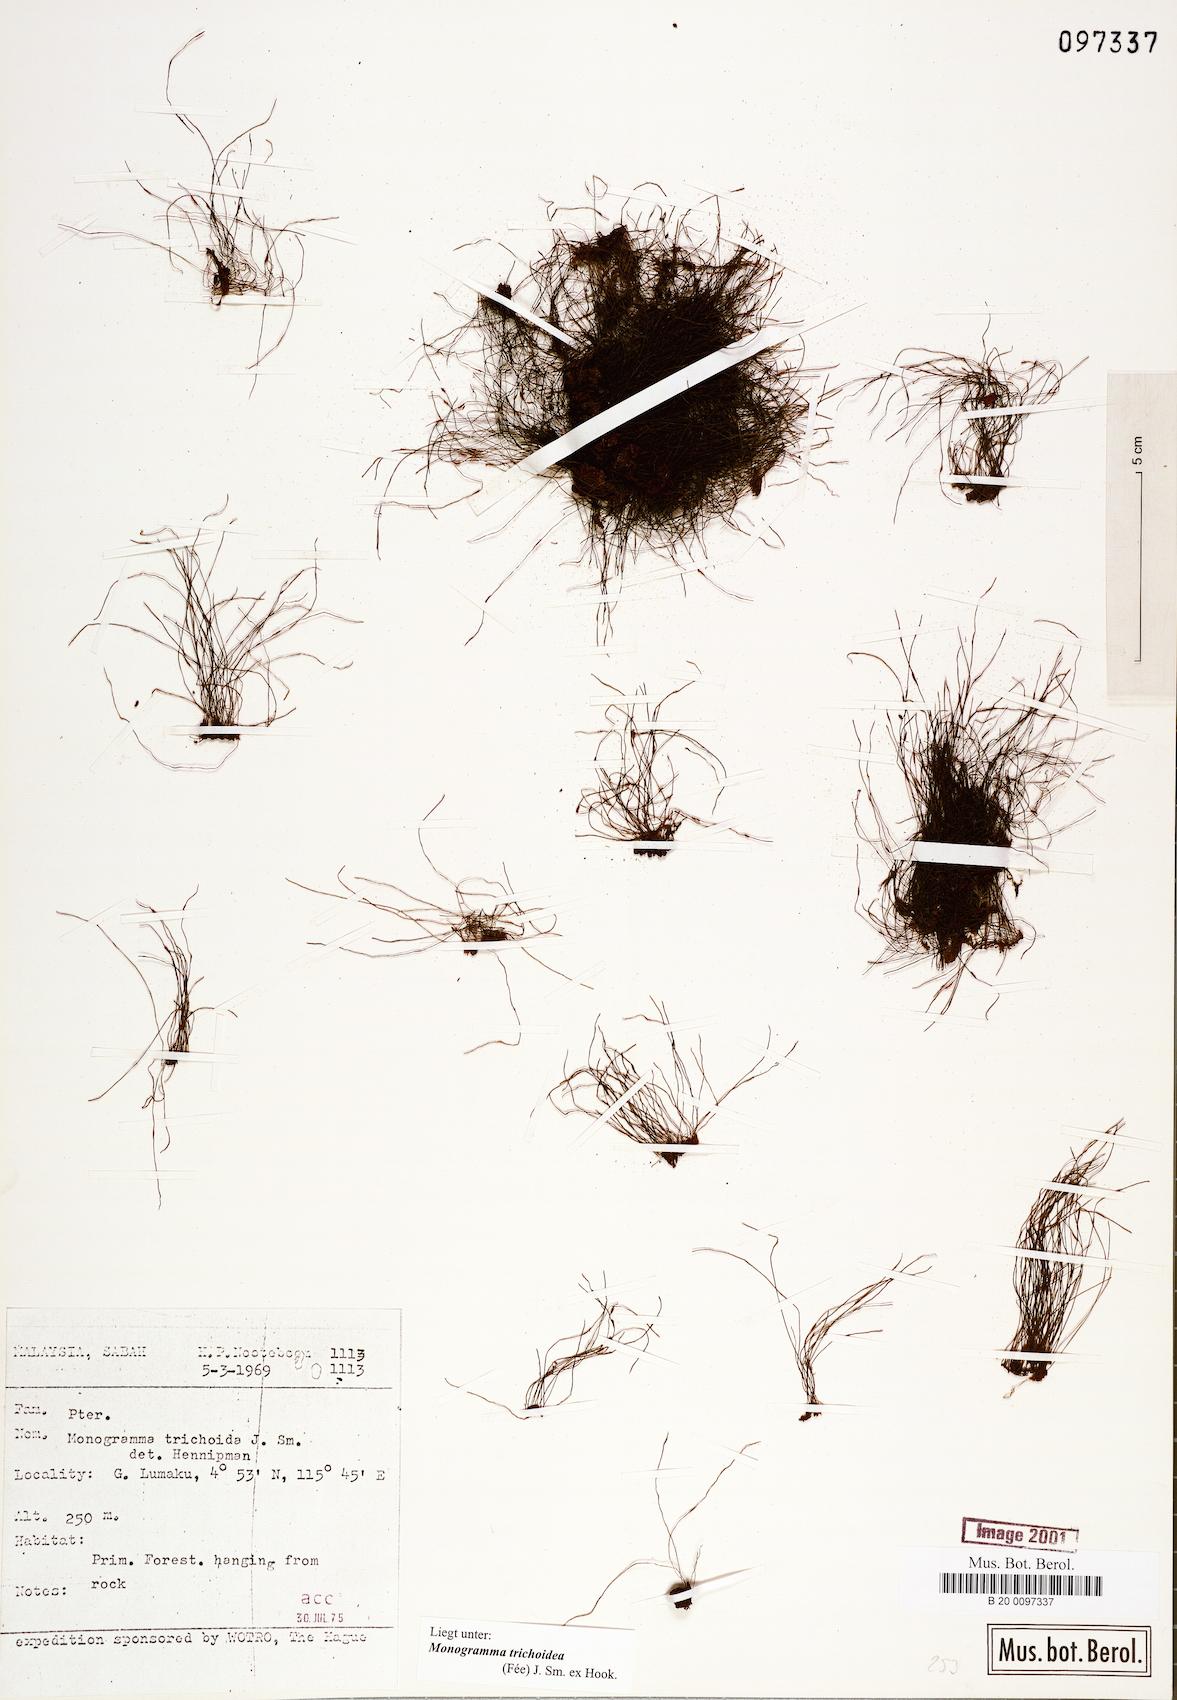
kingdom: Plantae
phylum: Tracheophyta
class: Polypodiopsida
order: Polypodiales
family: Pteridaceae
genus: Vaginularia
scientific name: Vaginularia trichoidea
